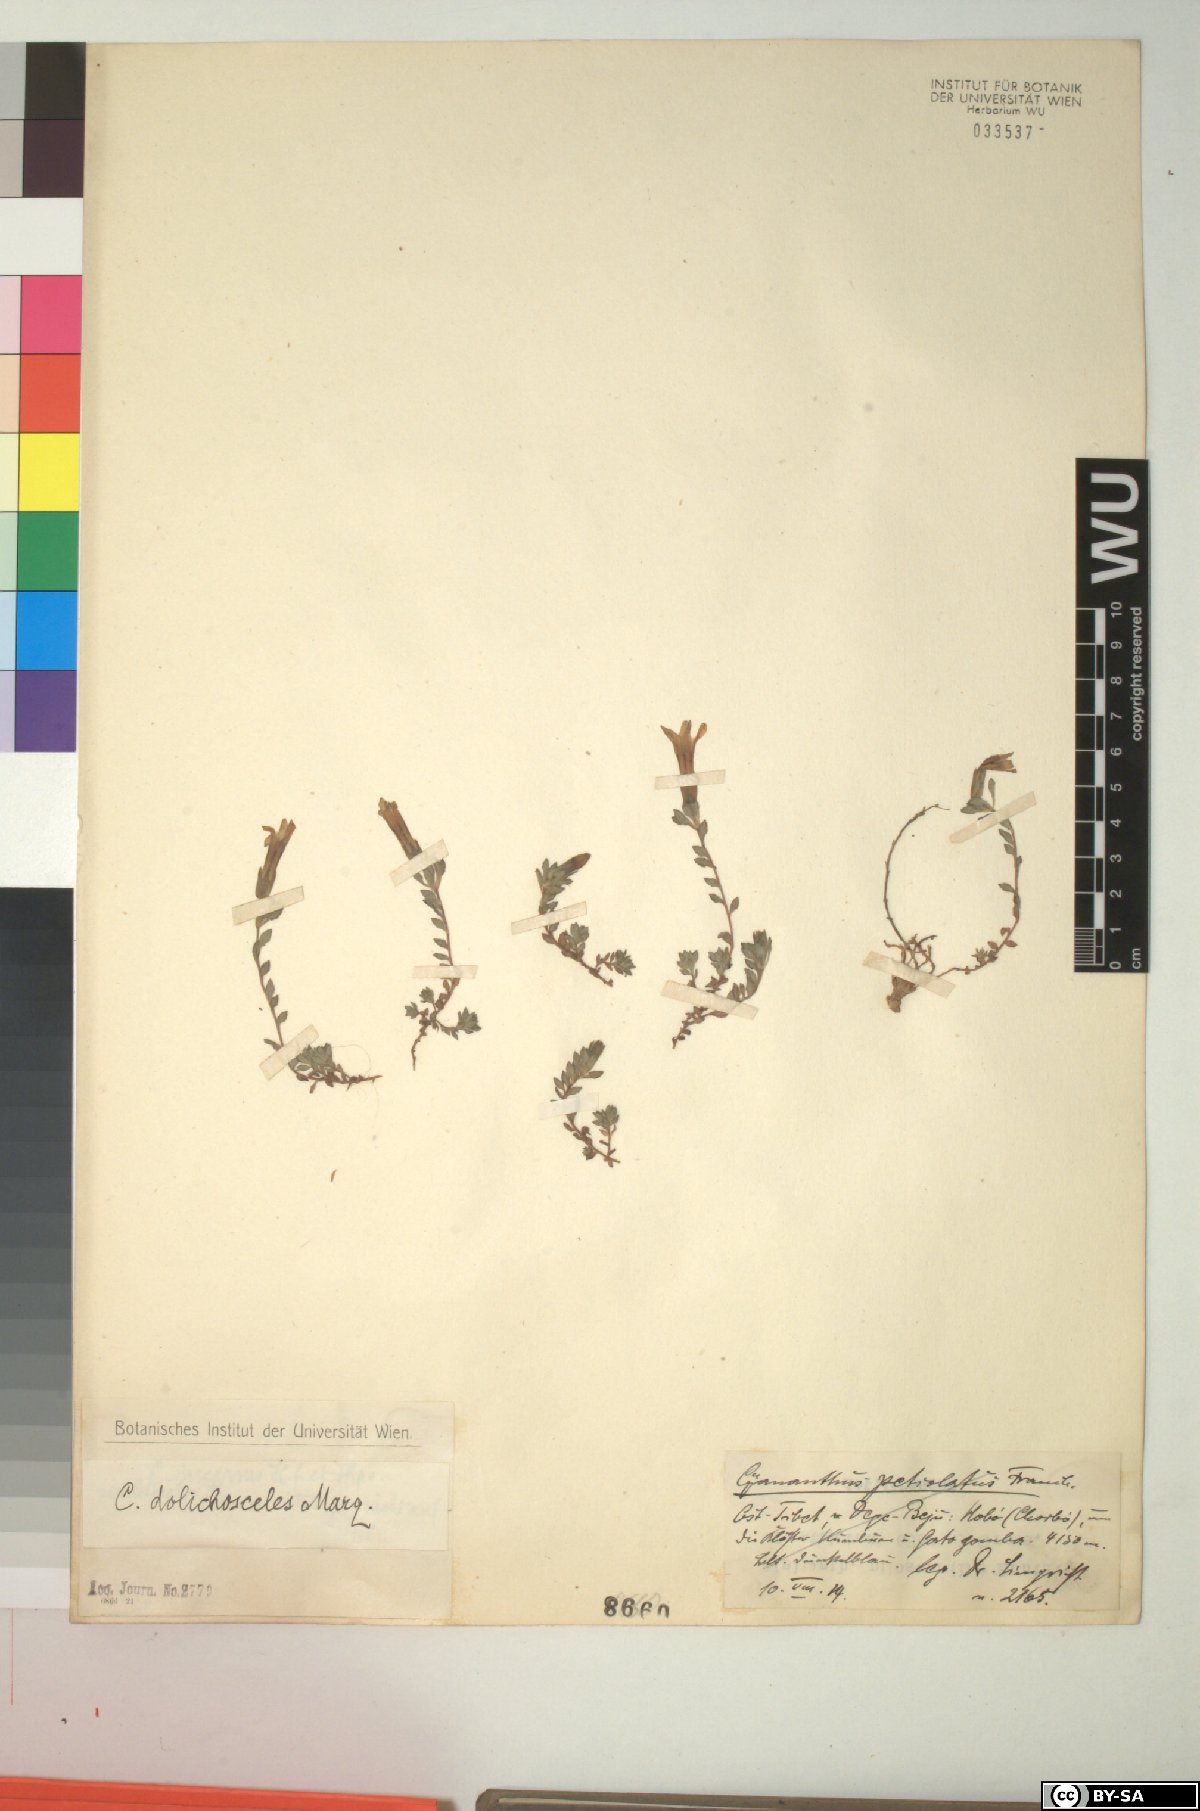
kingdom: Plantae
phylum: Tracheophyta
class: Magnoliopsida
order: Asterales
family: Campanulaceae
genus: Cyananthus
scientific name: Cyananthus incanus
